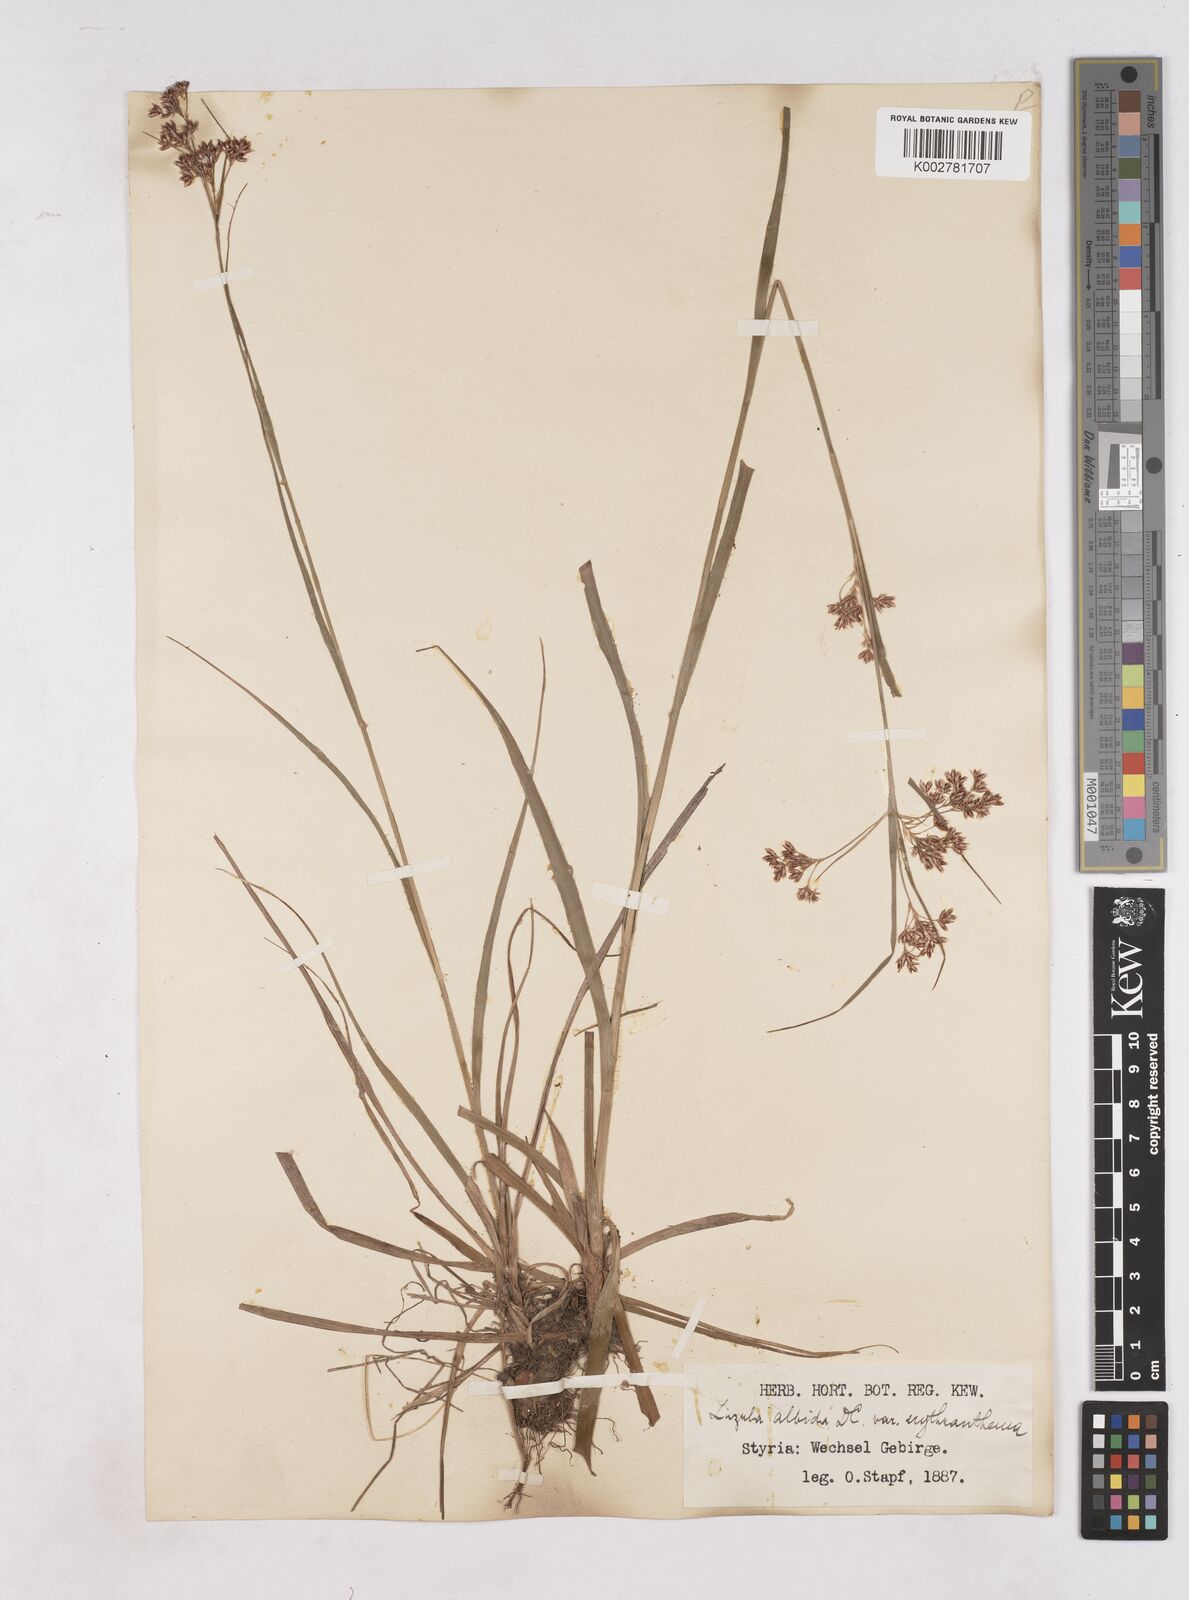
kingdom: Plantae
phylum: Tracheophyta
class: Liliopsida
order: Poales
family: Juncaceae
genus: Luzula
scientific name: Luzula luzuloides
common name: White wood-rush
